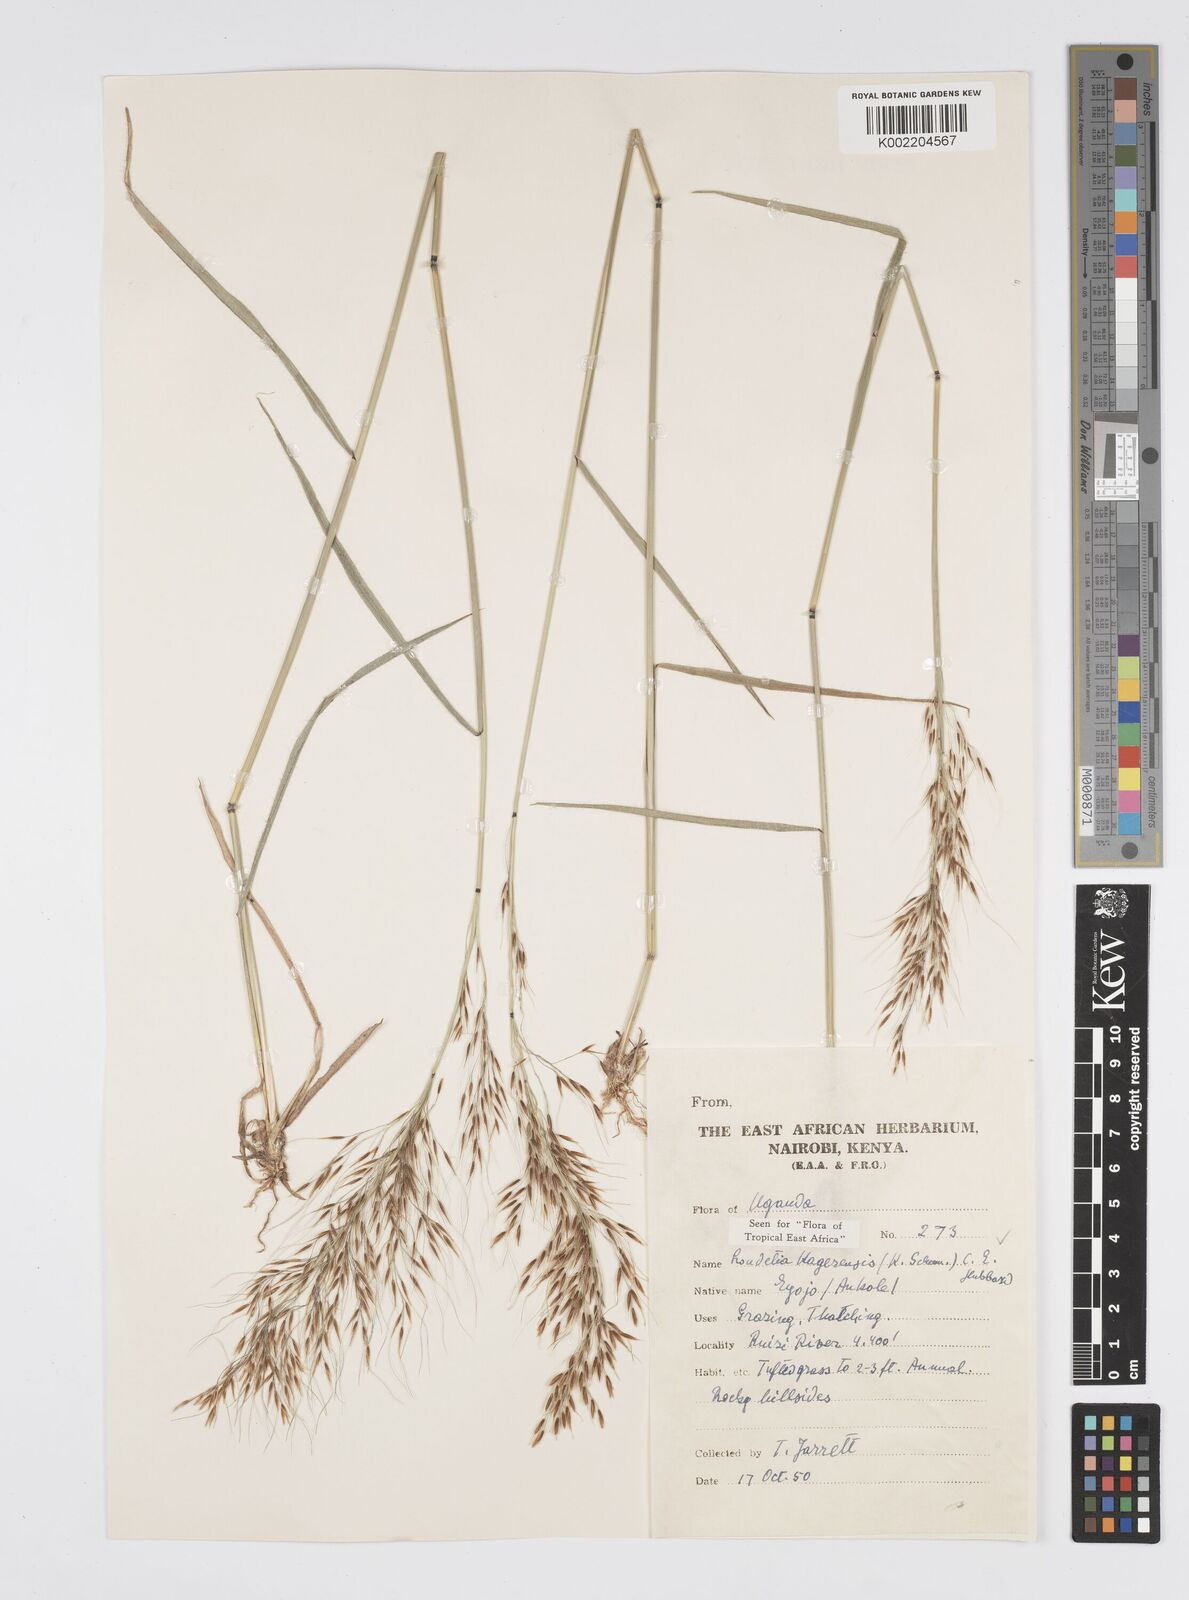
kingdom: Plantae
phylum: Tracheophyta
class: Liliopsida
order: Poales
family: Poaceae
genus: Loudetia
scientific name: Loudetia kagerensis
